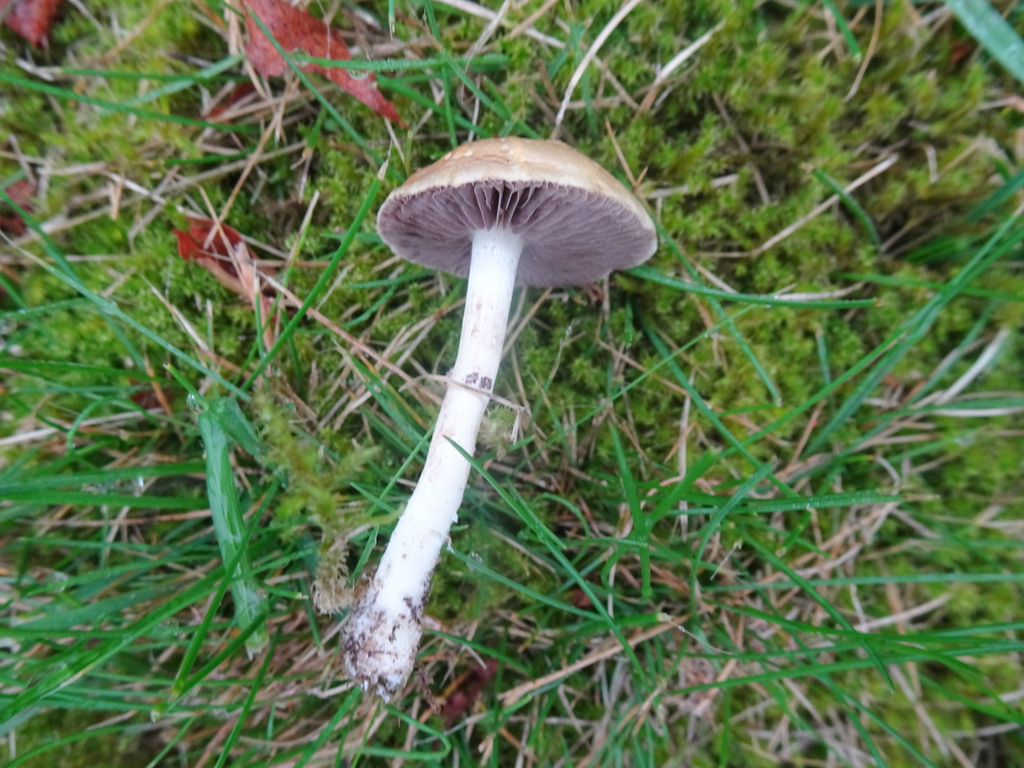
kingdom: Fungi
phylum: Basidiomycota
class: Agaricomycetes
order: Agaricales
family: Hymenogastraceae
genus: Psilocybe
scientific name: Psilocybe coronilla
